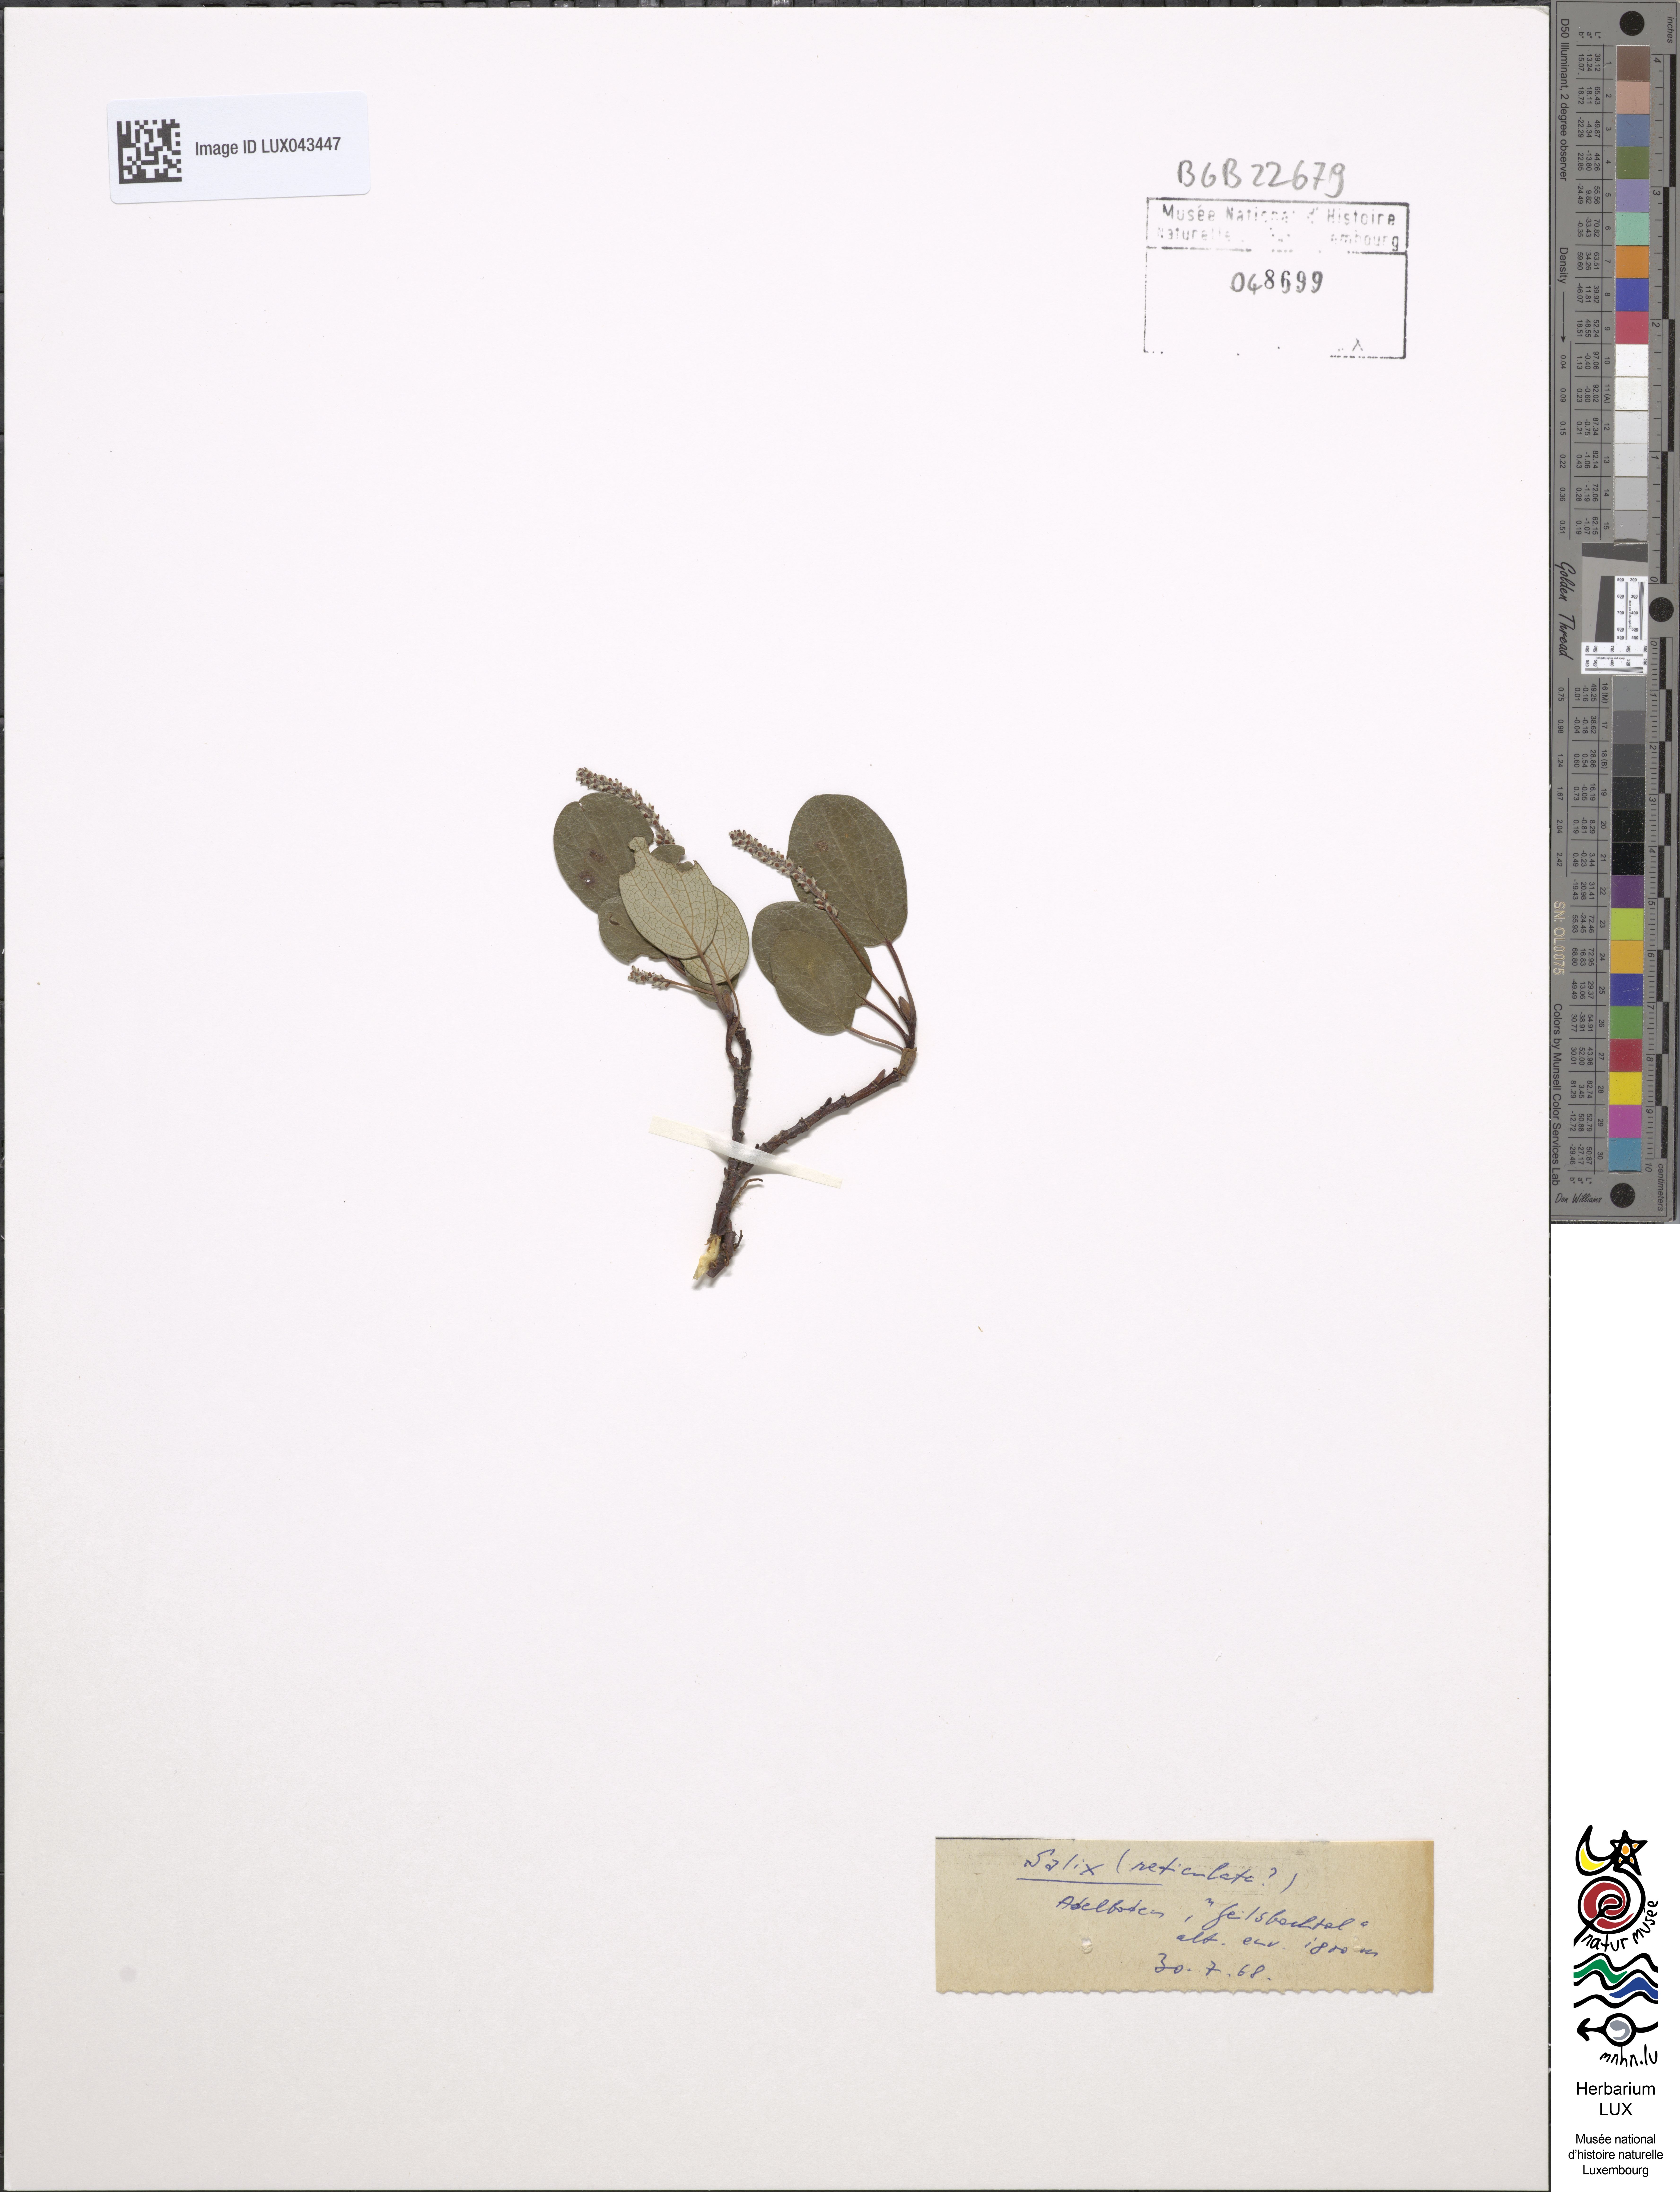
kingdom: Plantae
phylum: Tracheophyta
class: Magnoliopsida
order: Malpighiales
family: Salicaceae
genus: Salix
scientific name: Salix
